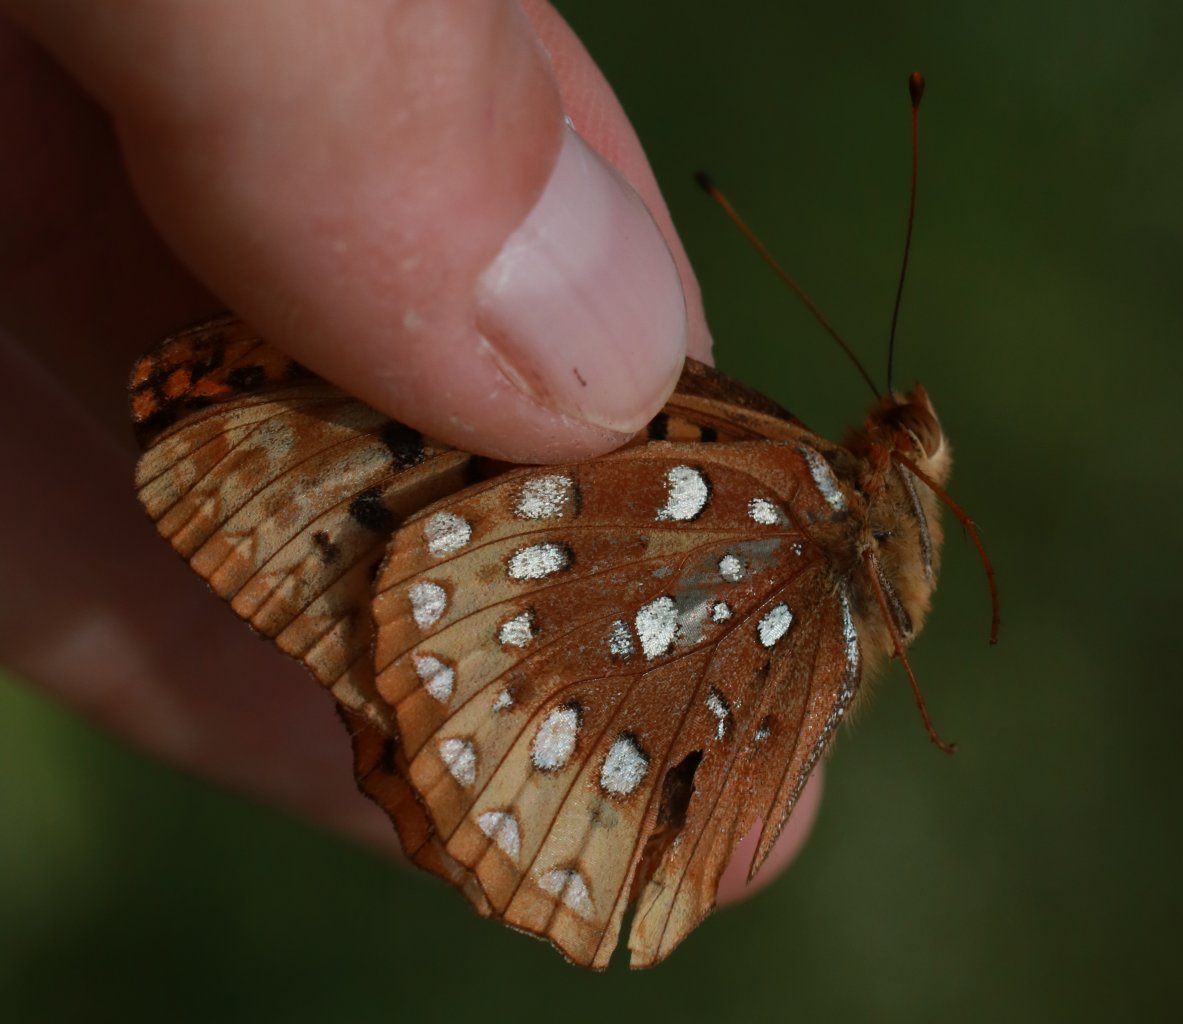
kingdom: Animalia
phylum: Arthropoda
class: Insecta
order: Lepidoptera
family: Nymphalidae
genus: Speyeria
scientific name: Speyeria cybele
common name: Great Spangled Fritillary
